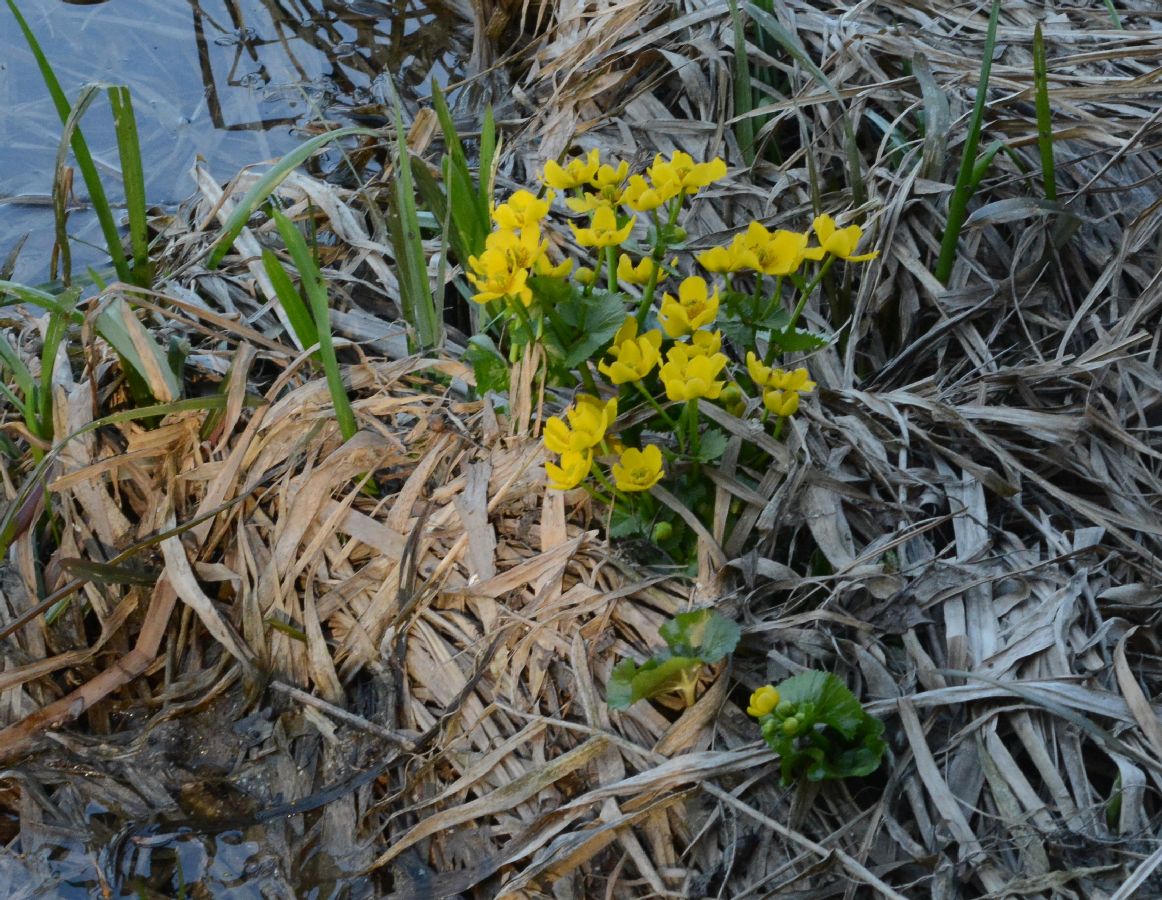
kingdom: Plantae
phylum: Tracheophyta
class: Magnoliopsida
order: Ranunculales
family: Ranunculaceae
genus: Caltha
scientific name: Caltha palustris
